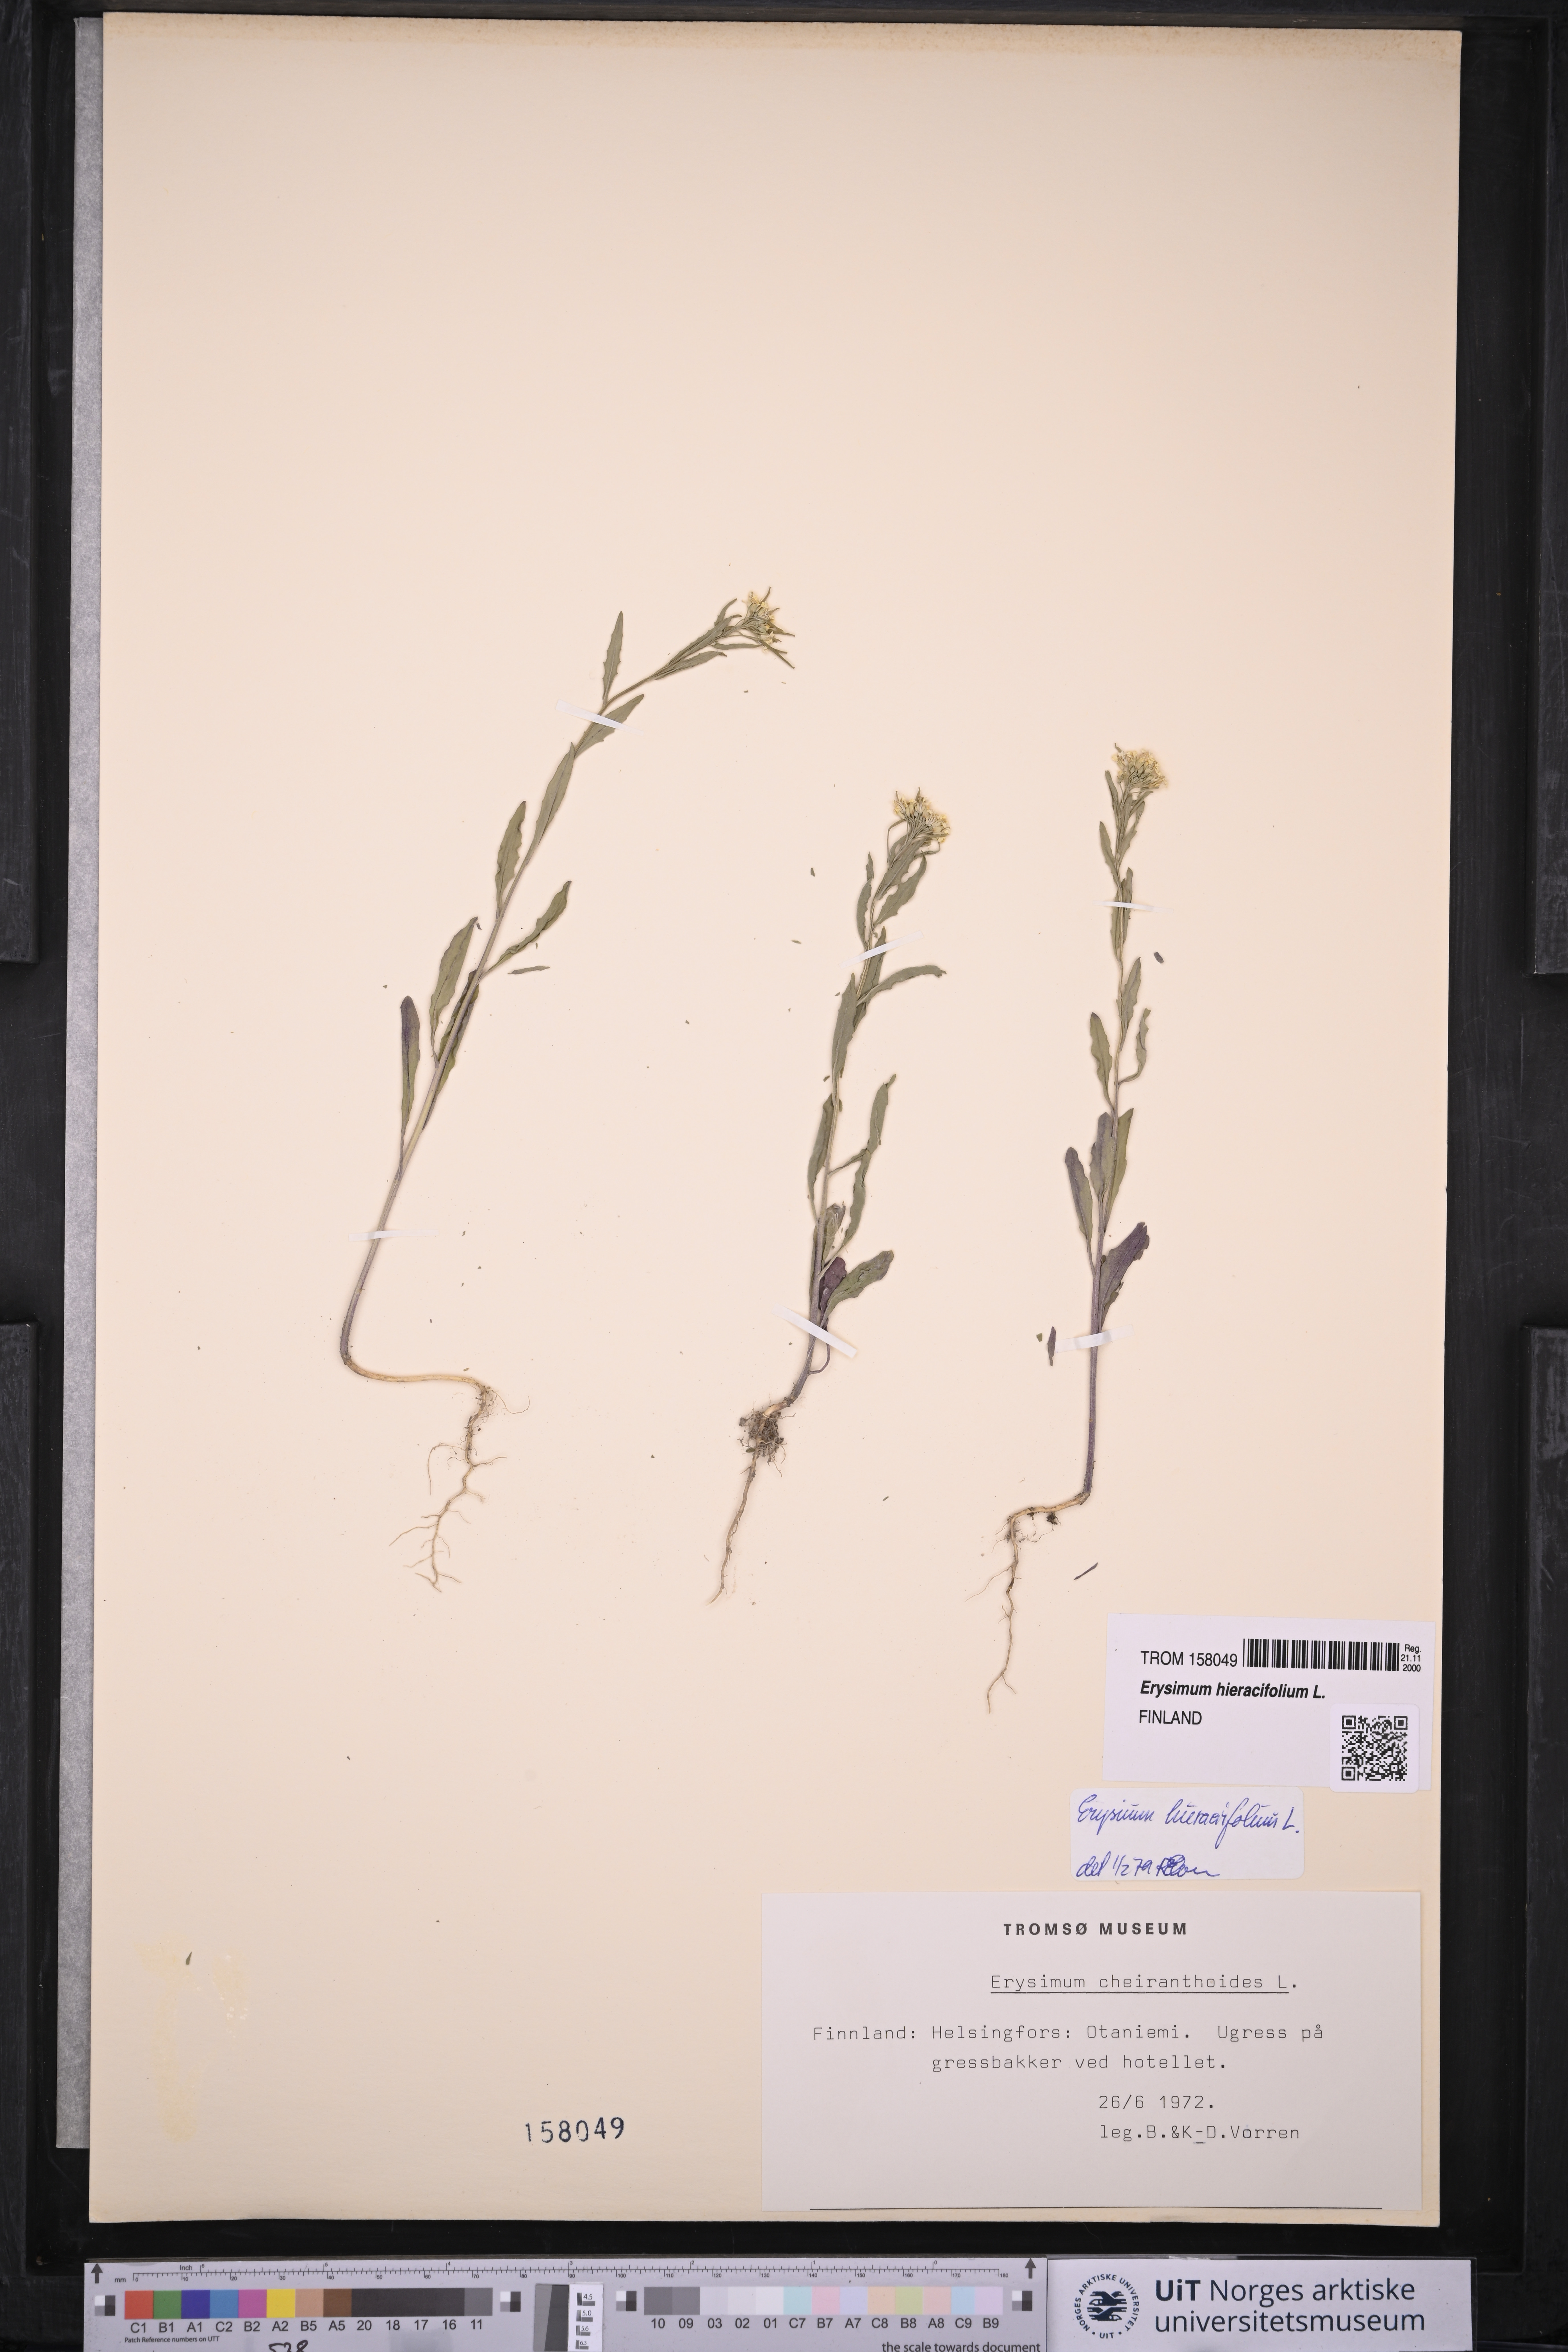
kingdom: Plantae
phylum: Tracheophyta
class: Magnoliopsida
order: Brassicales
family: Brassicaceae
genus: Erysimum
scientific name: Erysimum virgatum
